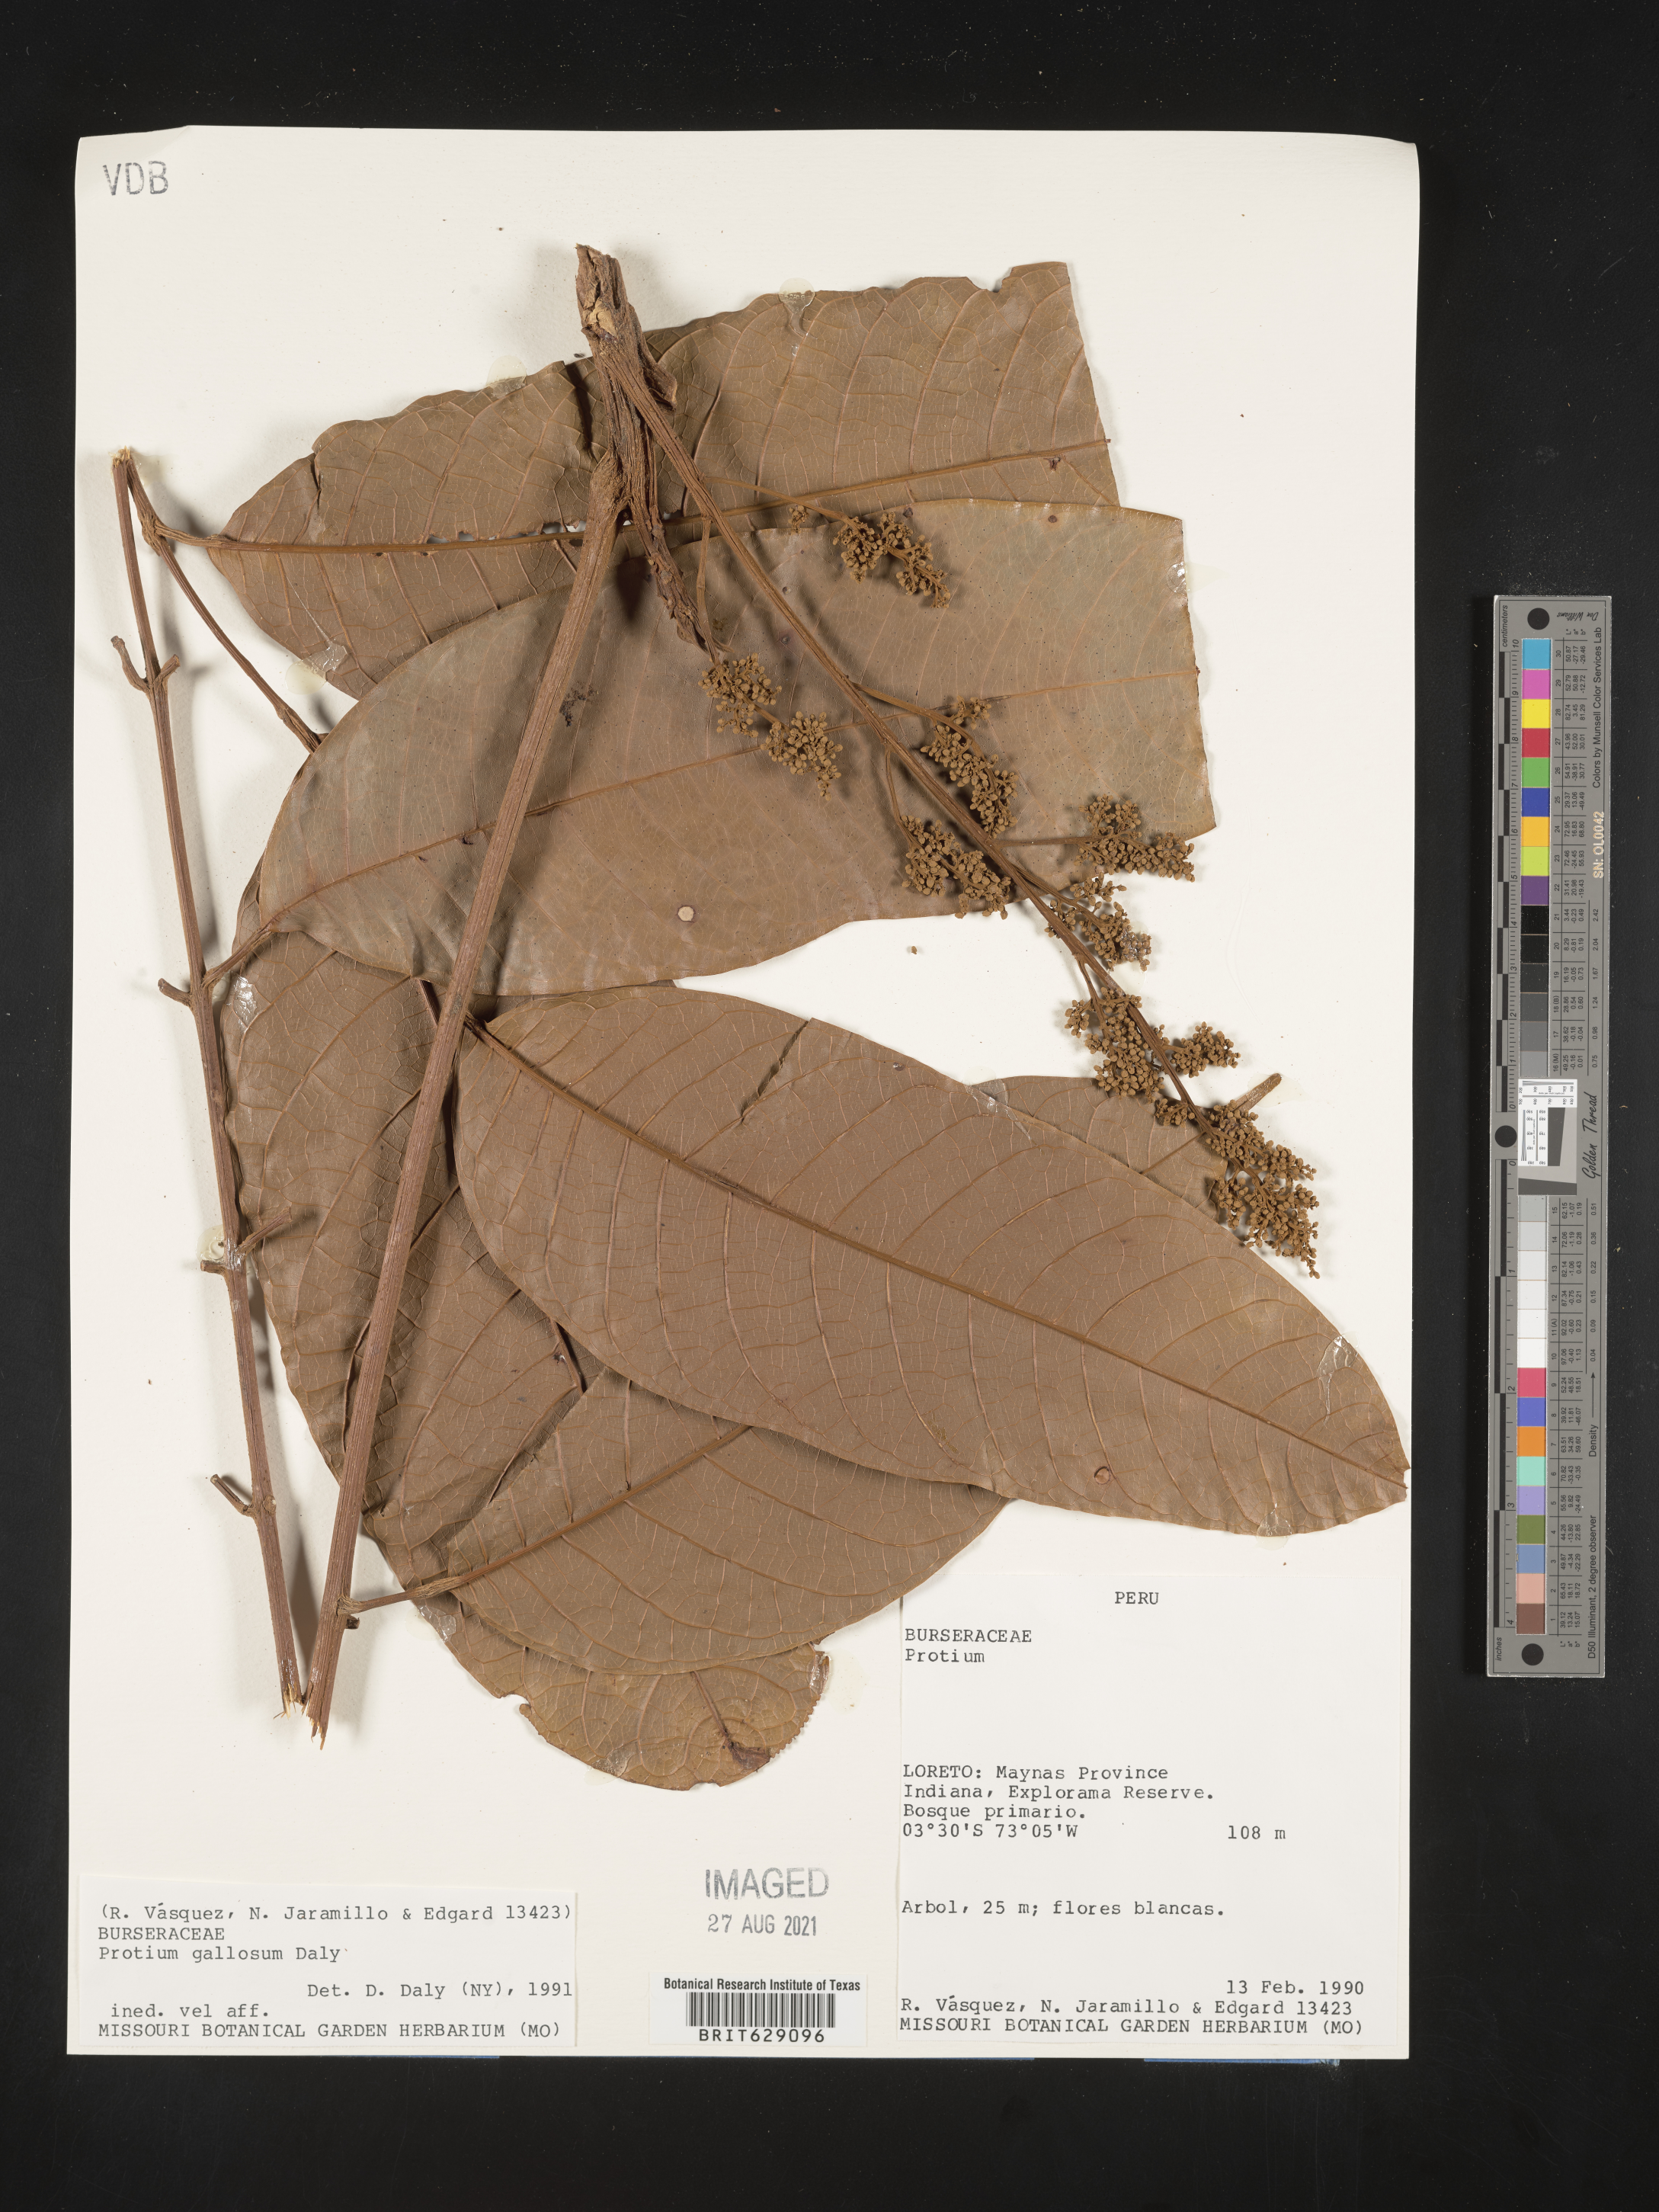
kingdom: Plantae
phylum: Tracheophyta
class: Magnoliopsida
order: Sapindales
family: Burseraceae
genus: Protium
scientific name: Protium gallosum
